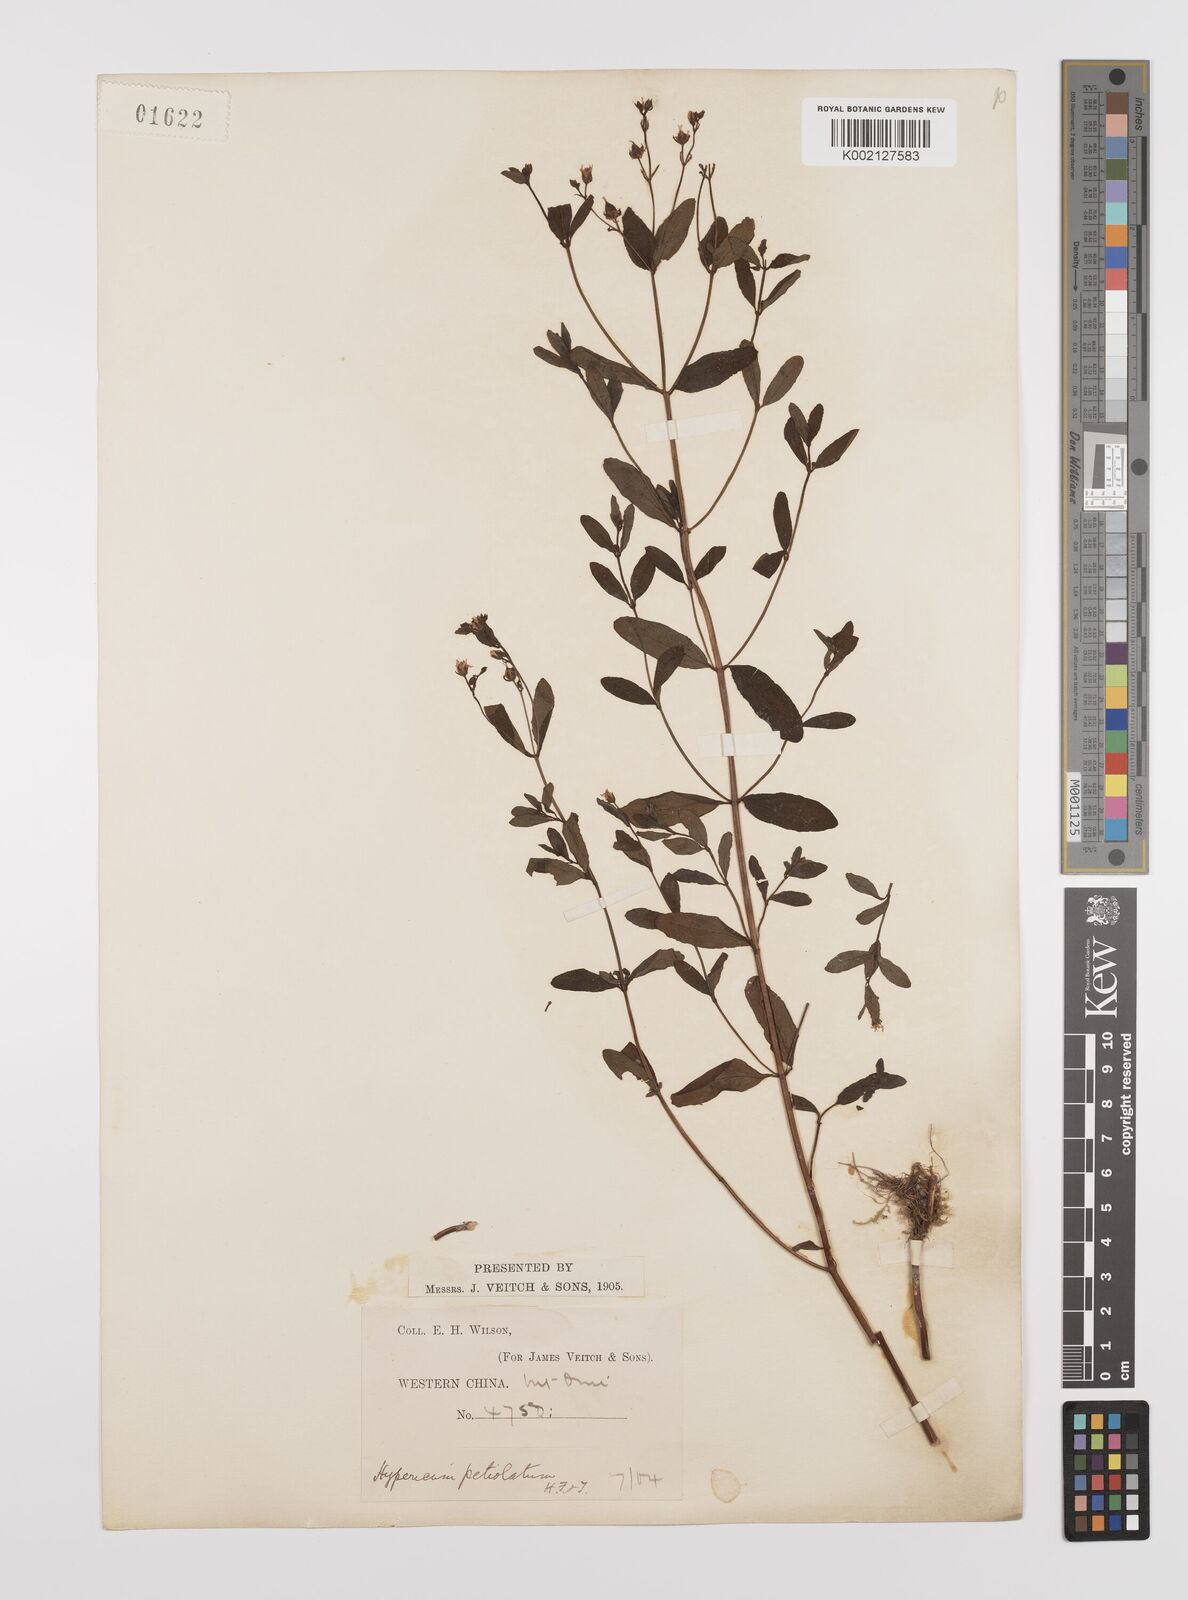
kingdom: Plantae
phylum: Tracheophyta
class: Magnoliopsida
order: Malpighiales
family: Hypericaceae
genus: Hypericum
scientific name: Hypericum petiolulatum
